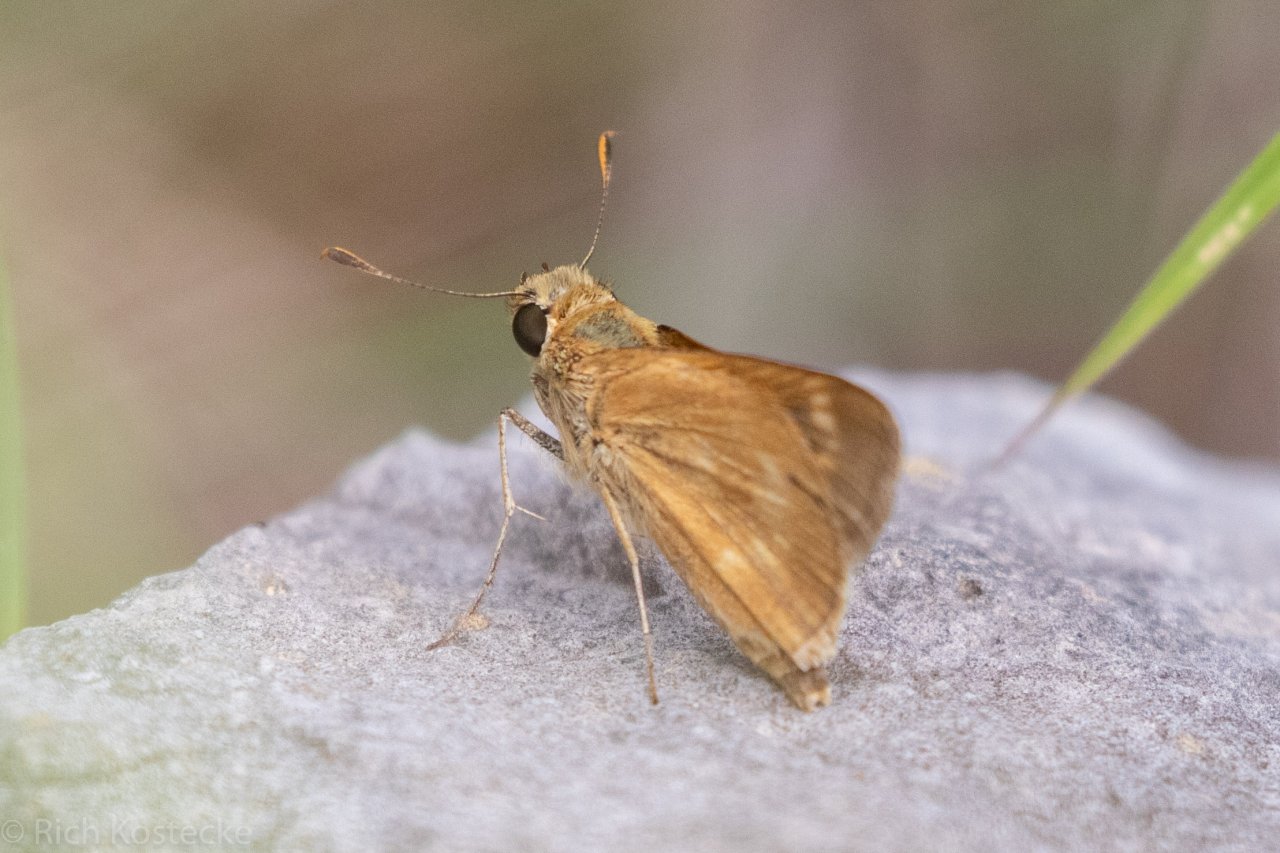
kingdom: Animalia
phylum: Arthropoda
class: Insecta
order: Lepidoptera
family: Hesperiidae
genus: Wallengrenia
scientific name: Wallengrenia otho
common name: Southern Broken-Dash
